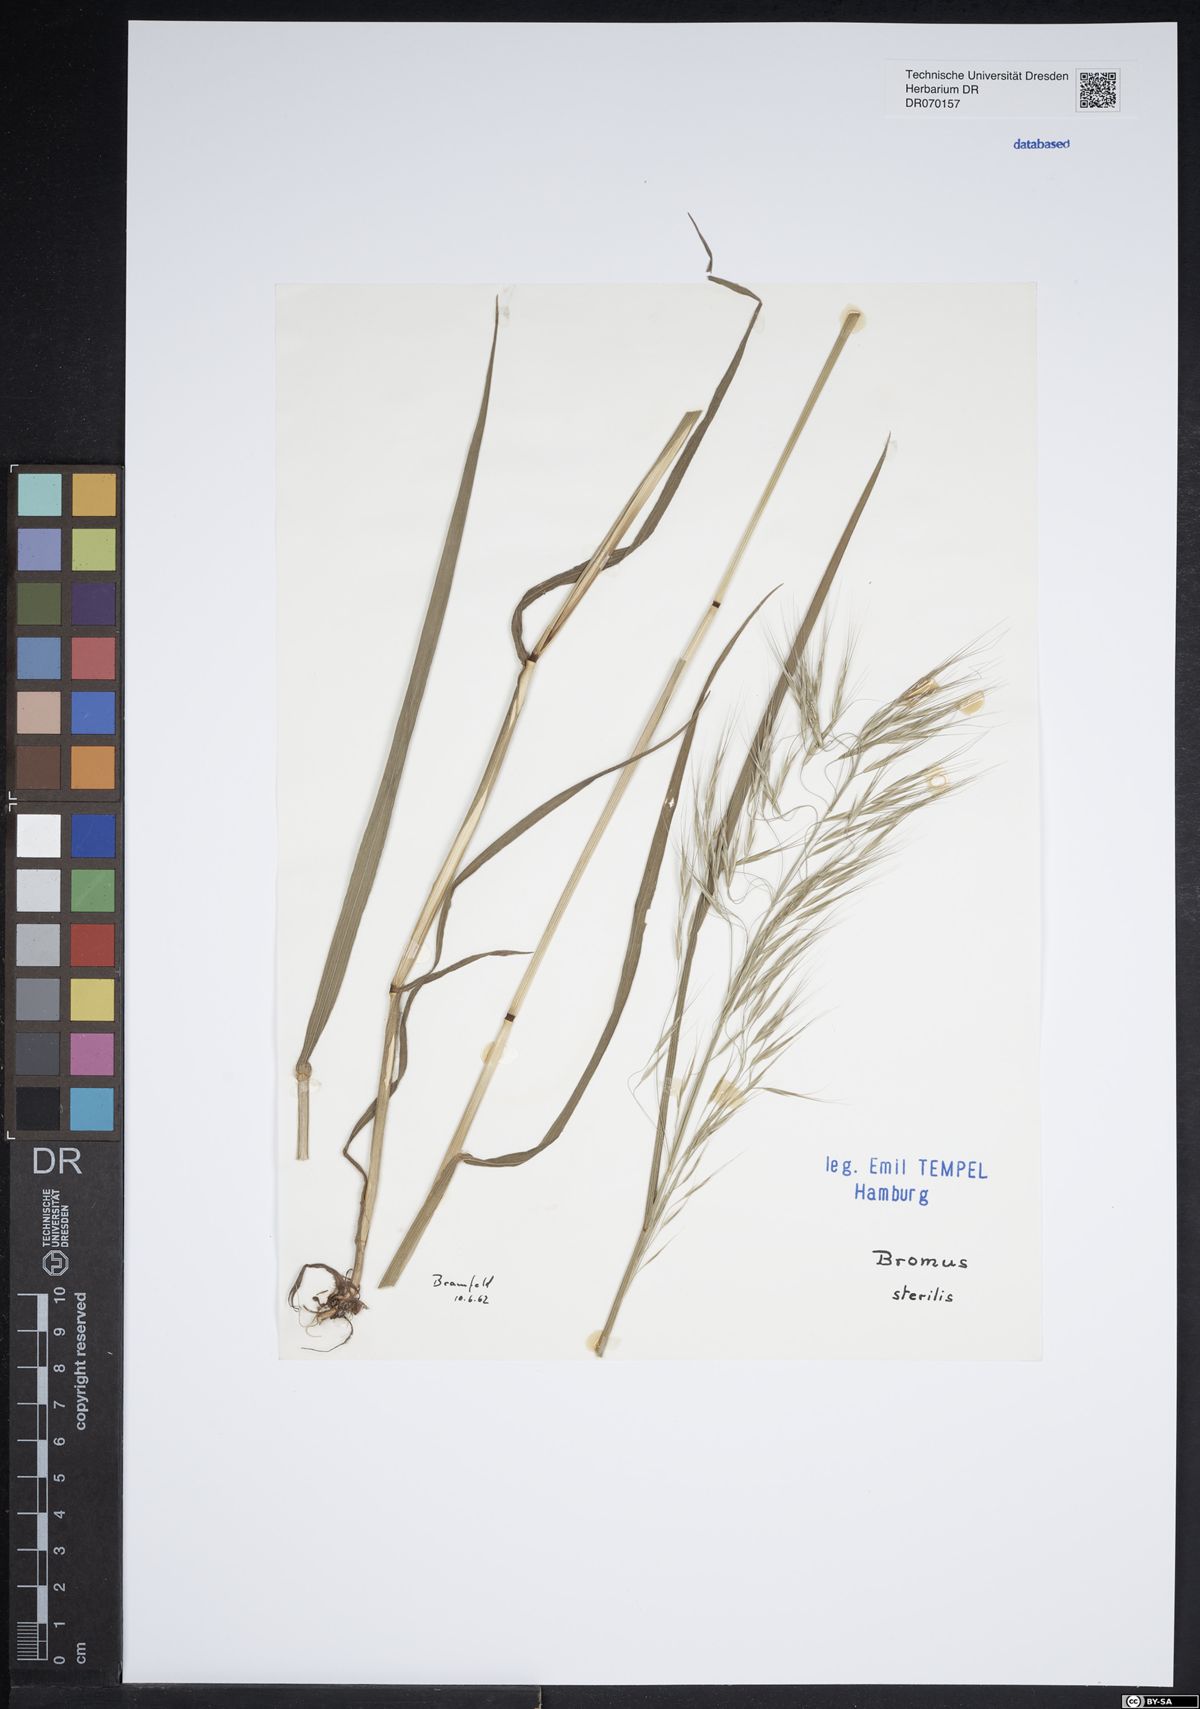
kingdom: Plantae
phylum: Tracheophyta
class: Liliopsida
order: Poales
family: Poaceae
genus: Bromus
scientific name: Bromus sterilis
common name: Poverty brome
